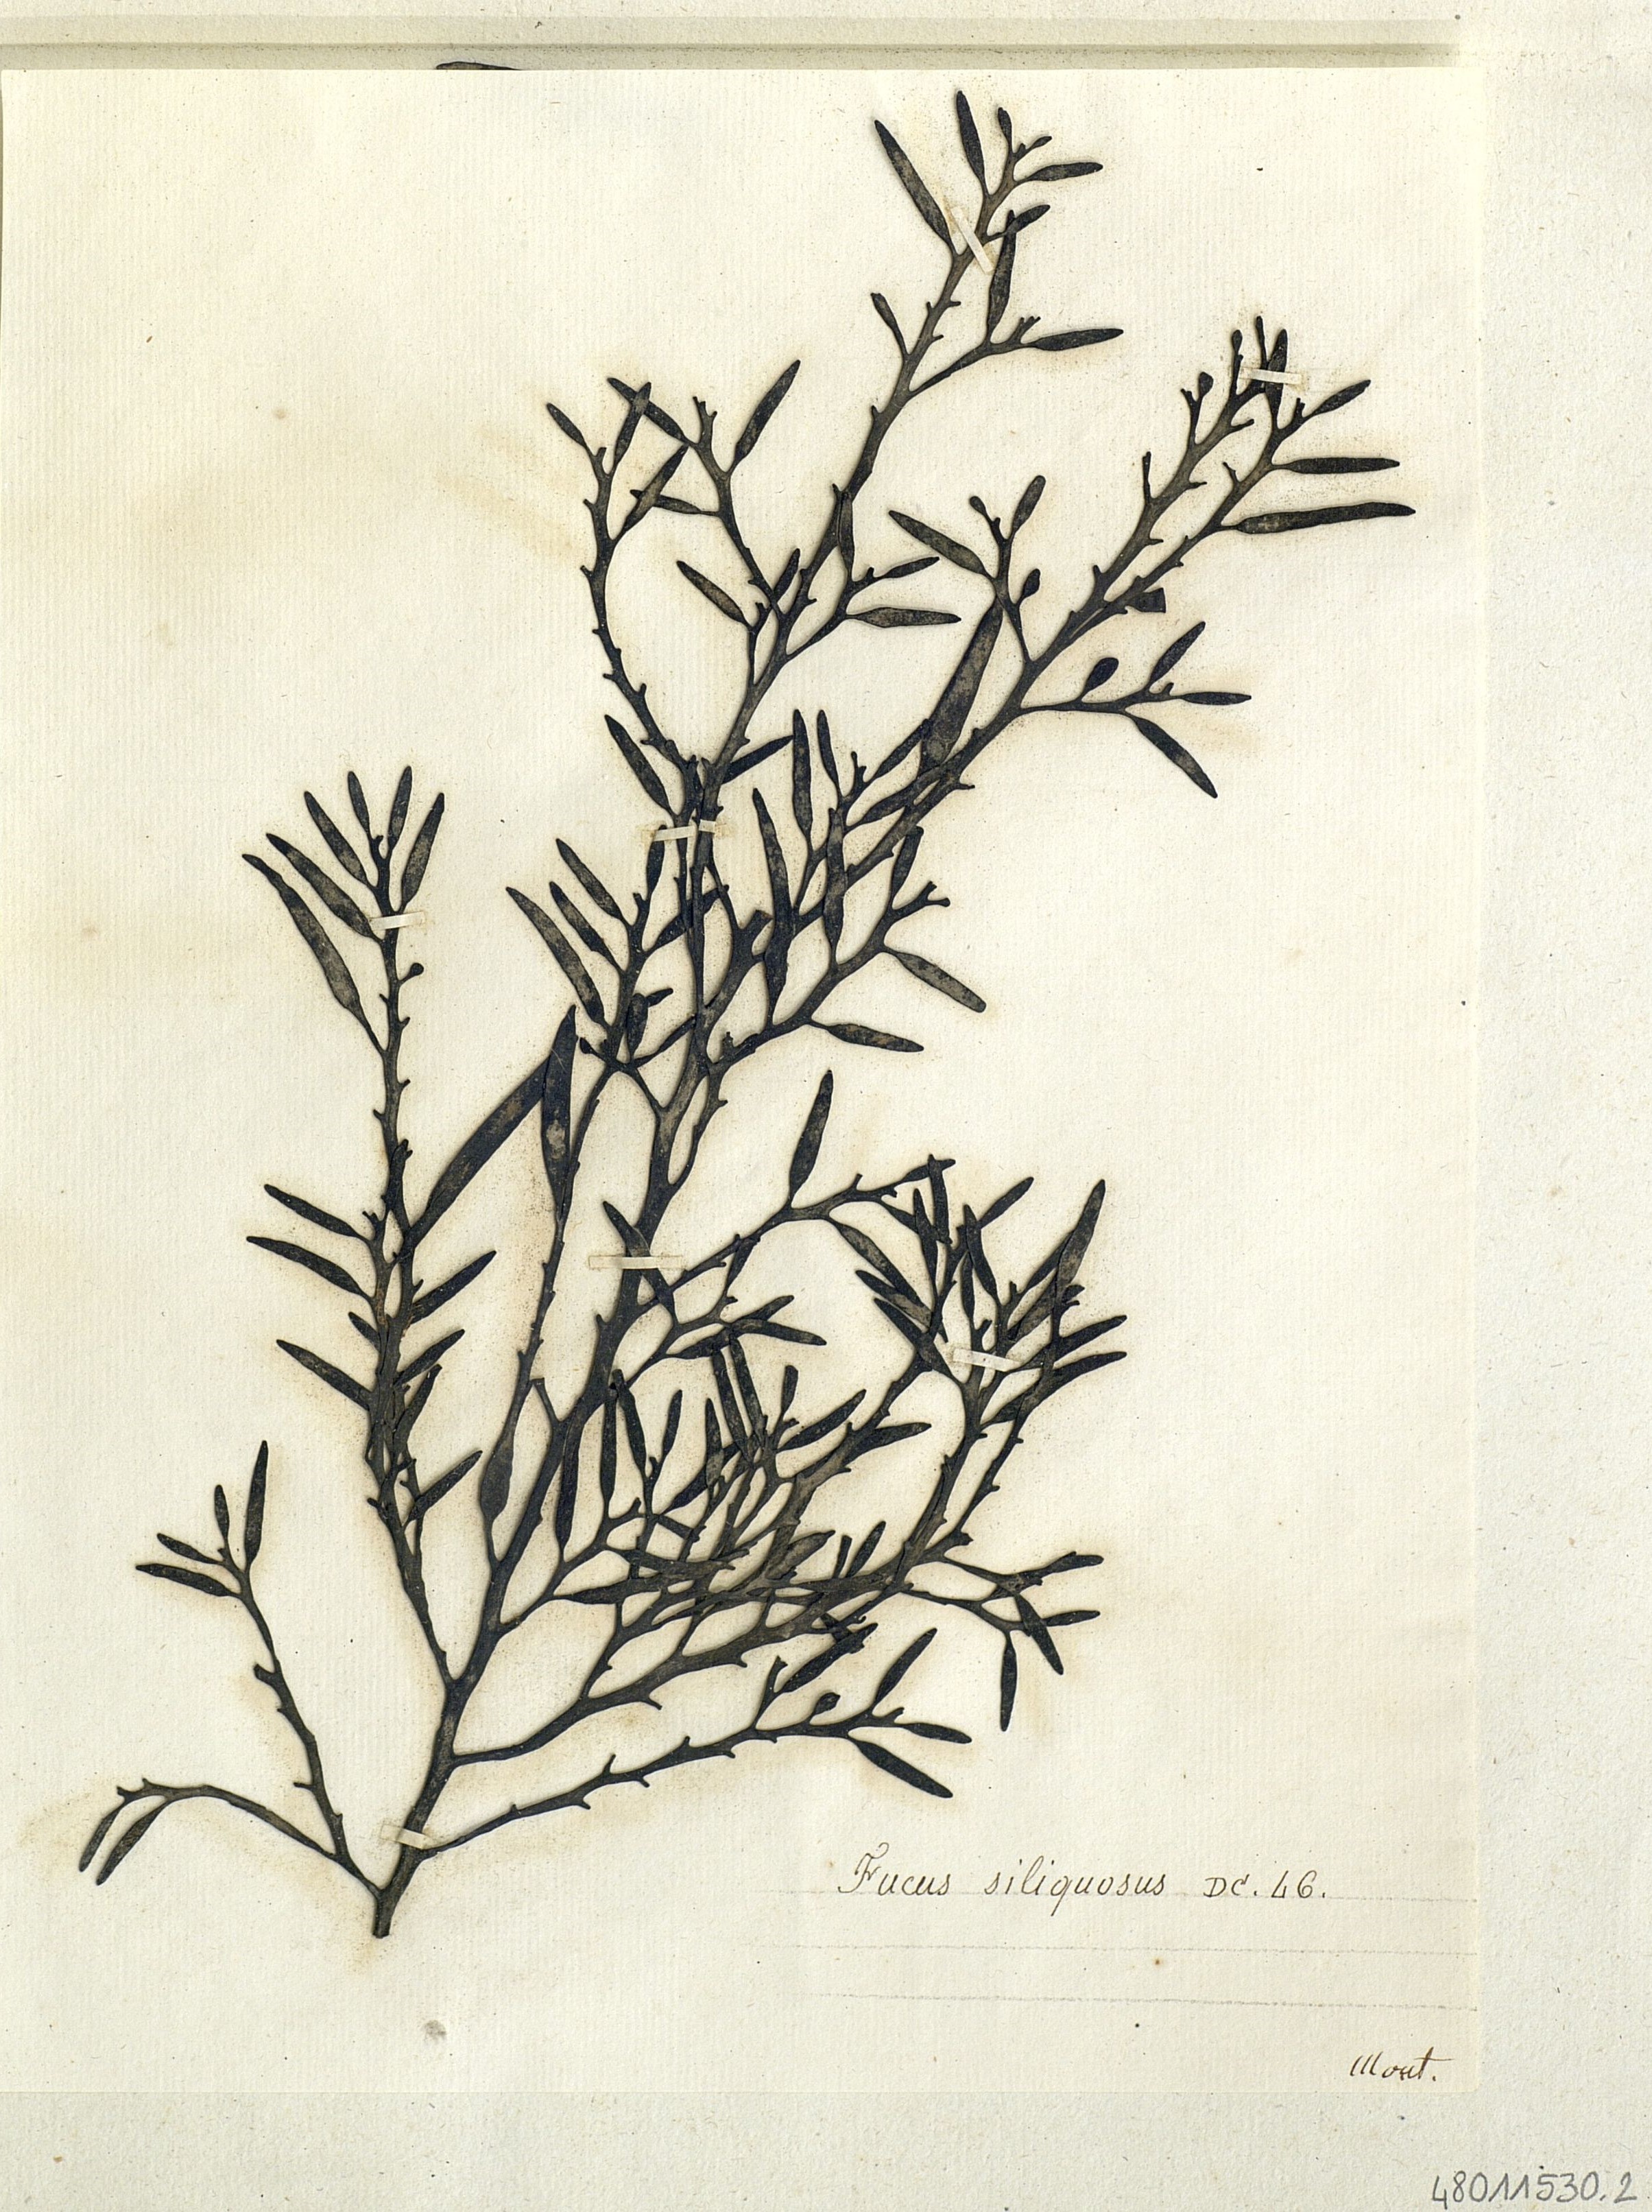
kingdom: Chromista
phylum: Ochrophyta
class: Phaeophyceae
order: Fucales
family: Sargassaceae
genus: Halidrys
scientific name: Halidrys siliquosa
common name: Sea oak
